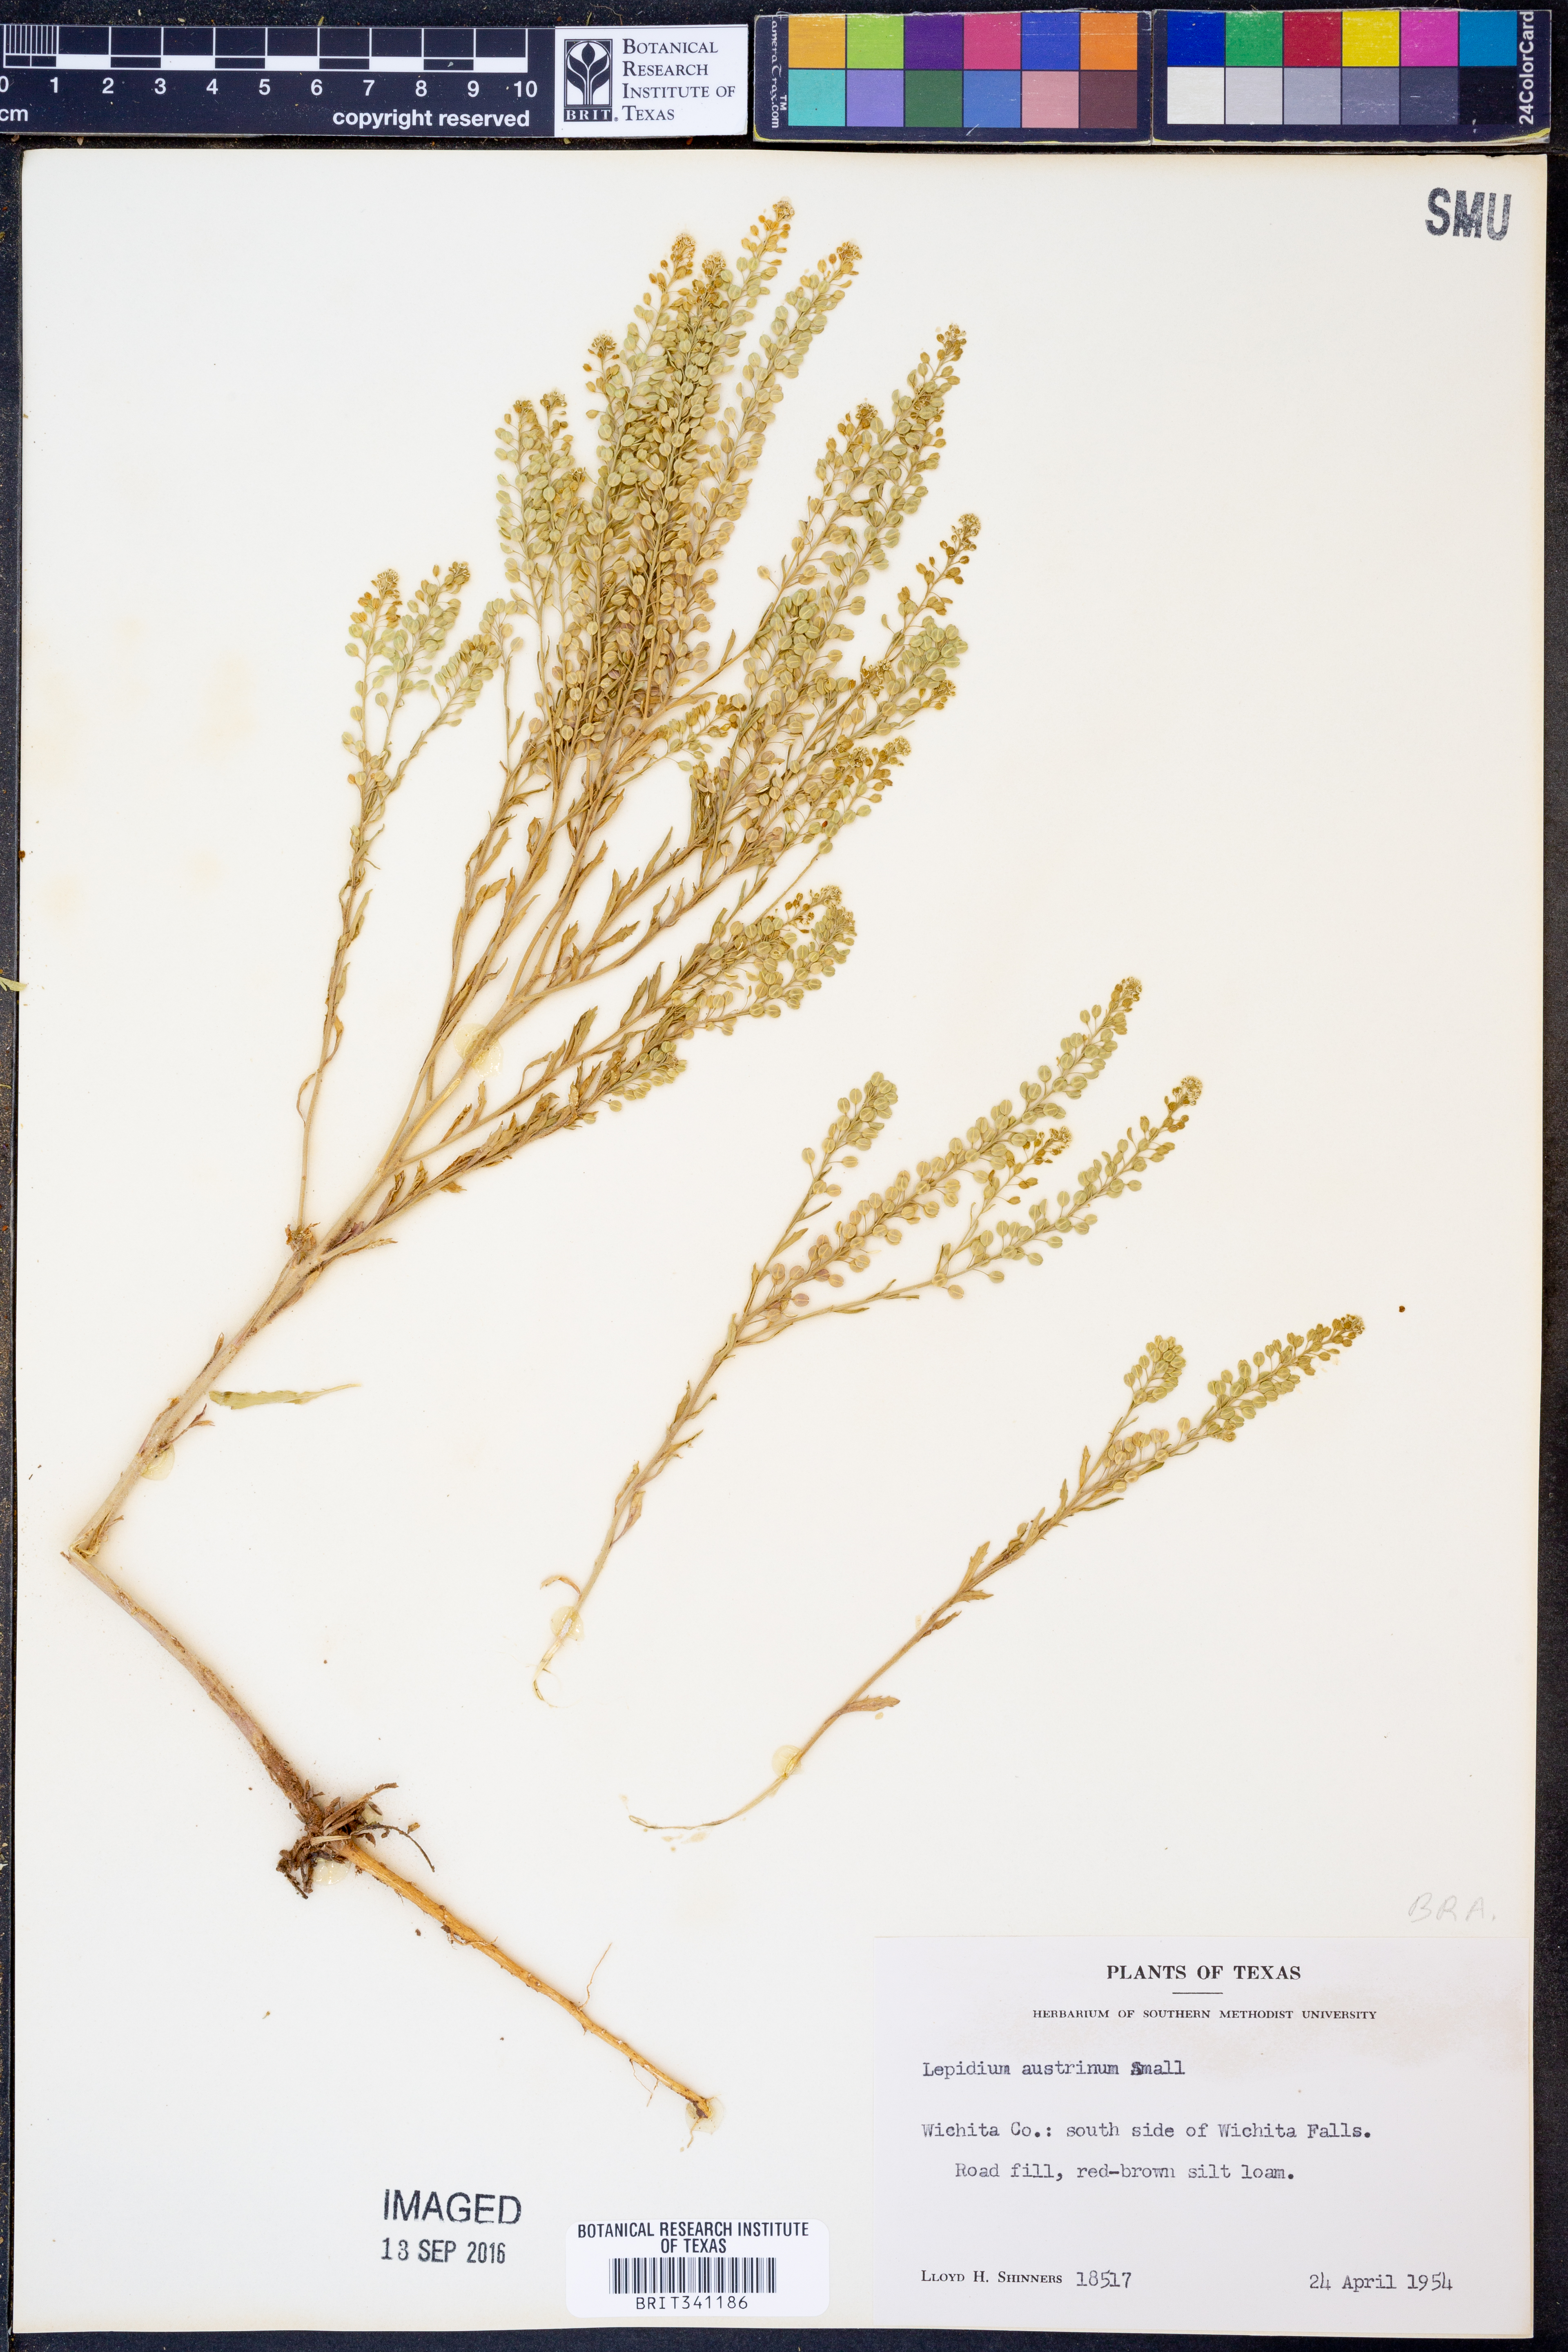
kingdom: Plantae
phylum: Tracheophyta
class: Magnoliopsida
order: Brassicales
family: Brassicaceae
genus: Lepidium
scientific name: Lepidium austrinum
